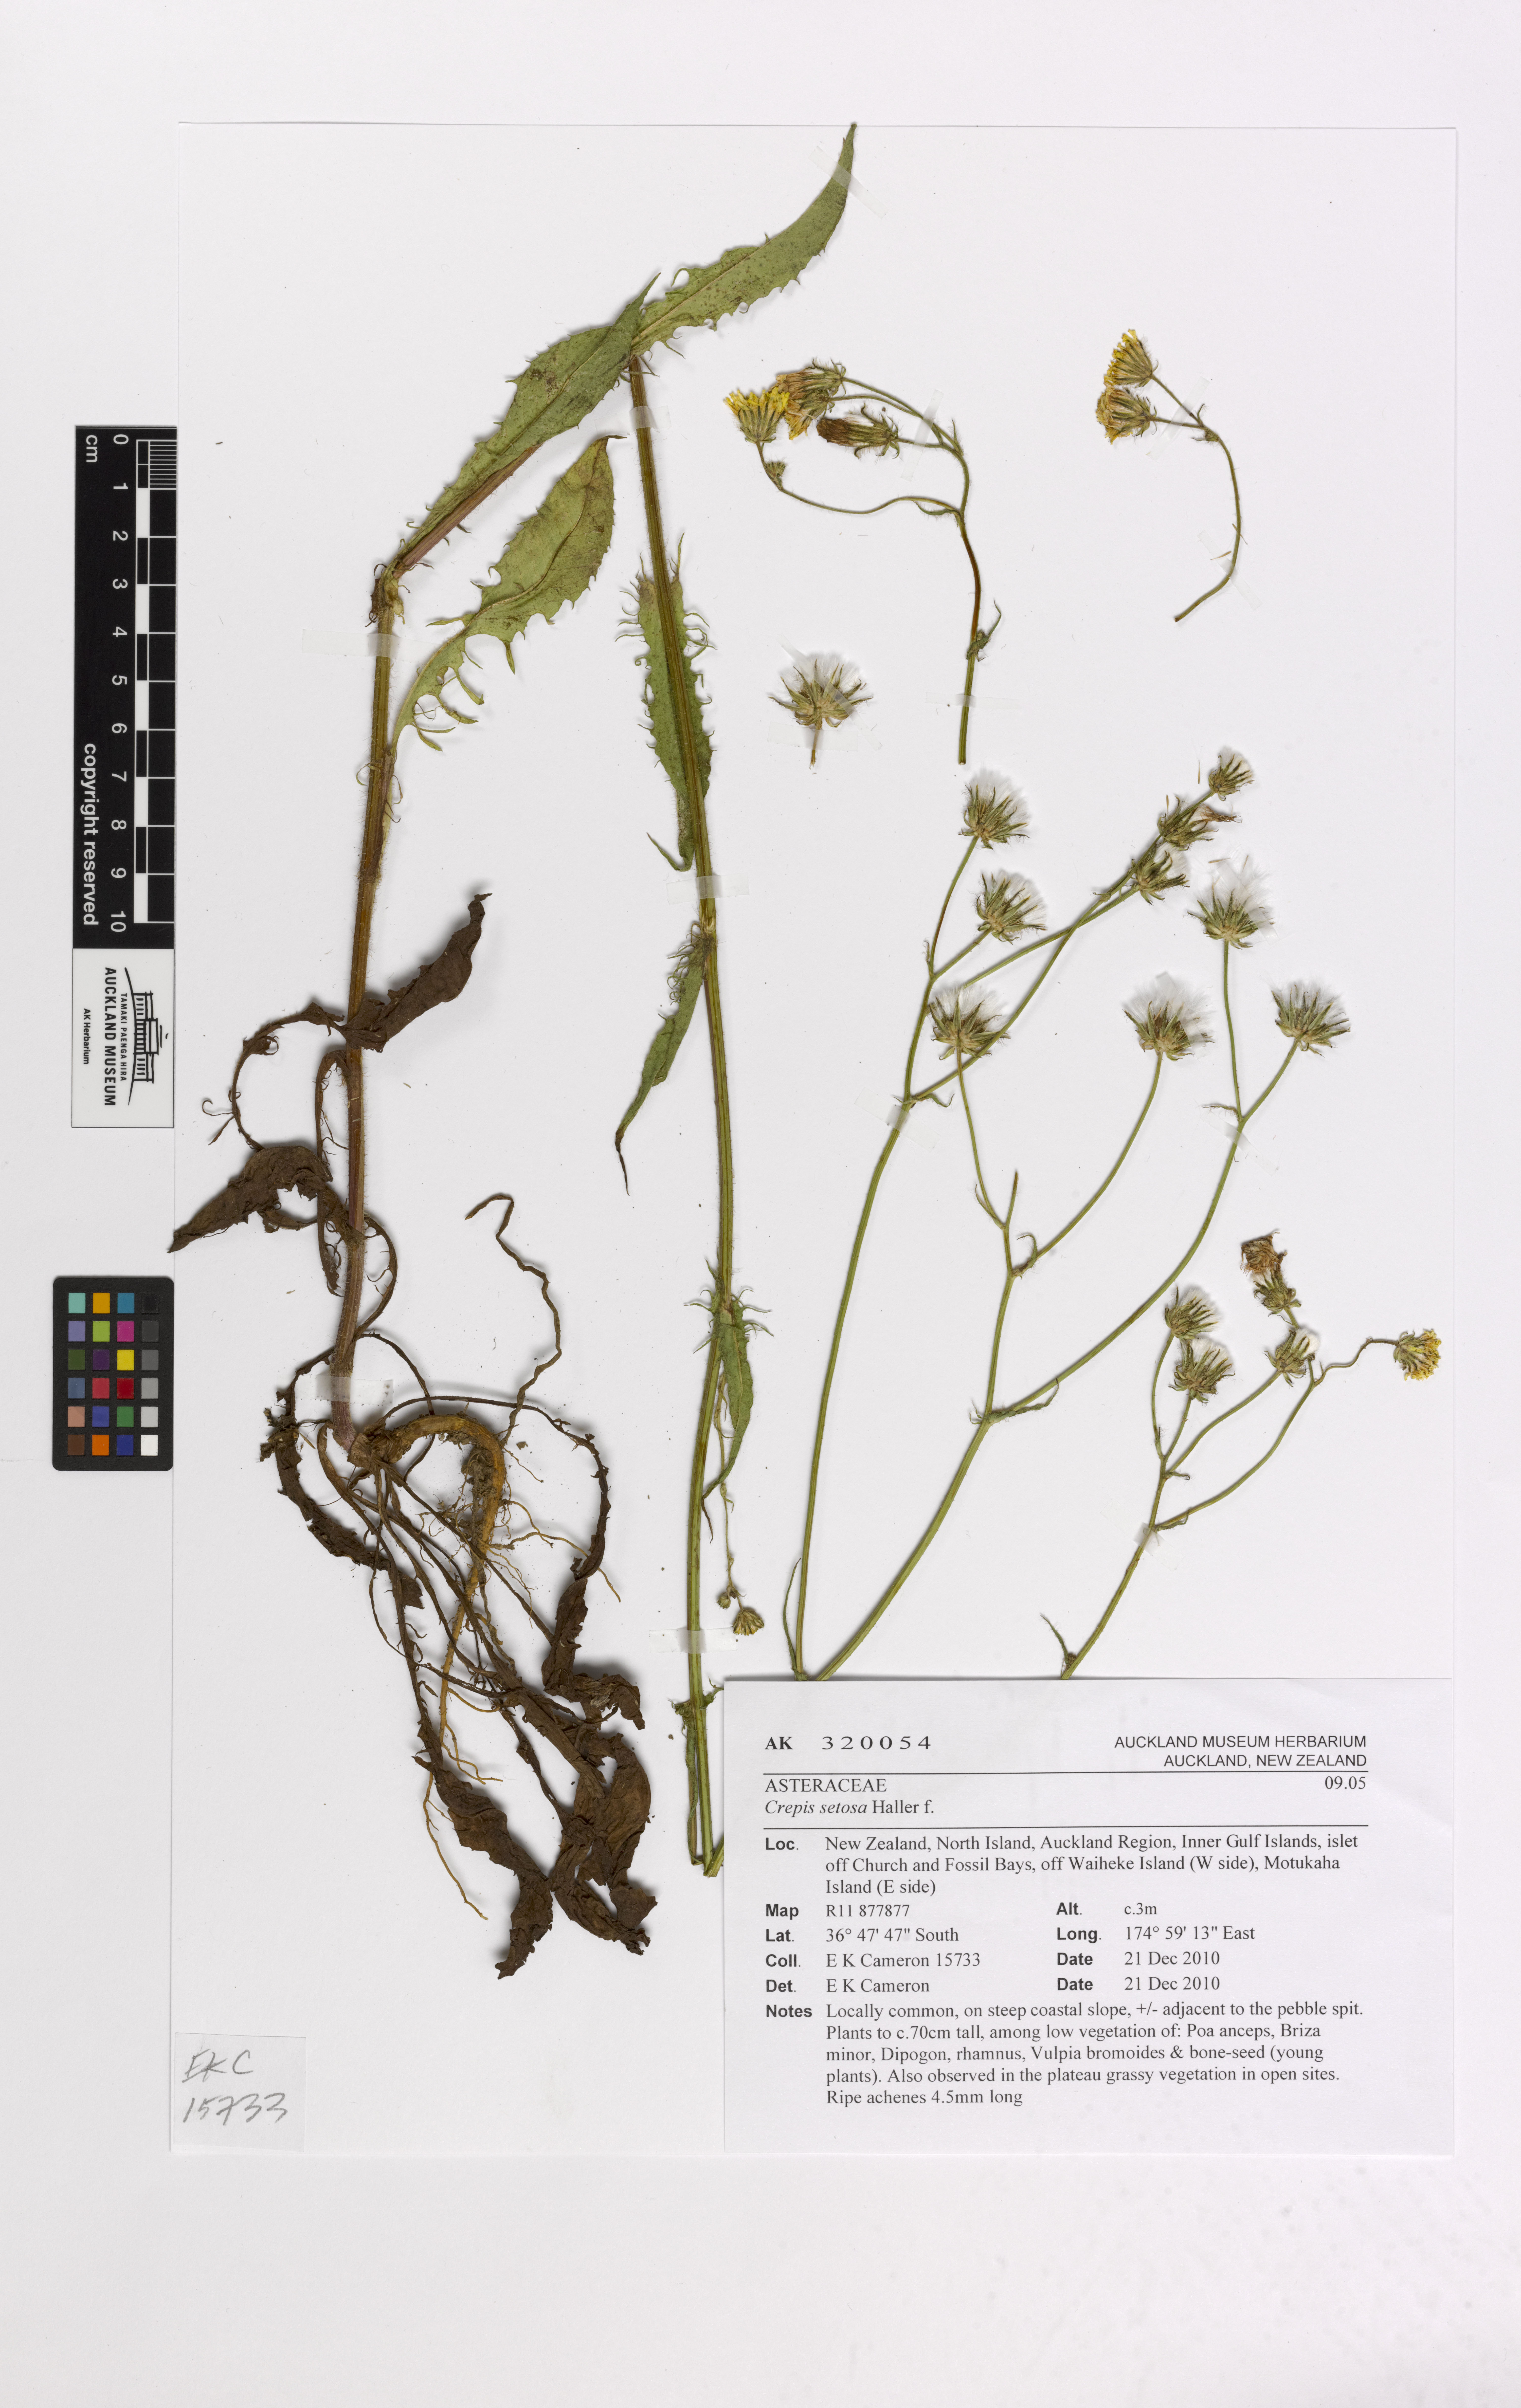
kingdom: Plantae
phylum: Tracheophyta
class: Magnoliopsida
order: Asterales
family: Asteraceae
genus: Crepis
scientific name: Crepis setosa
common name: Bristly hawk's-beard
